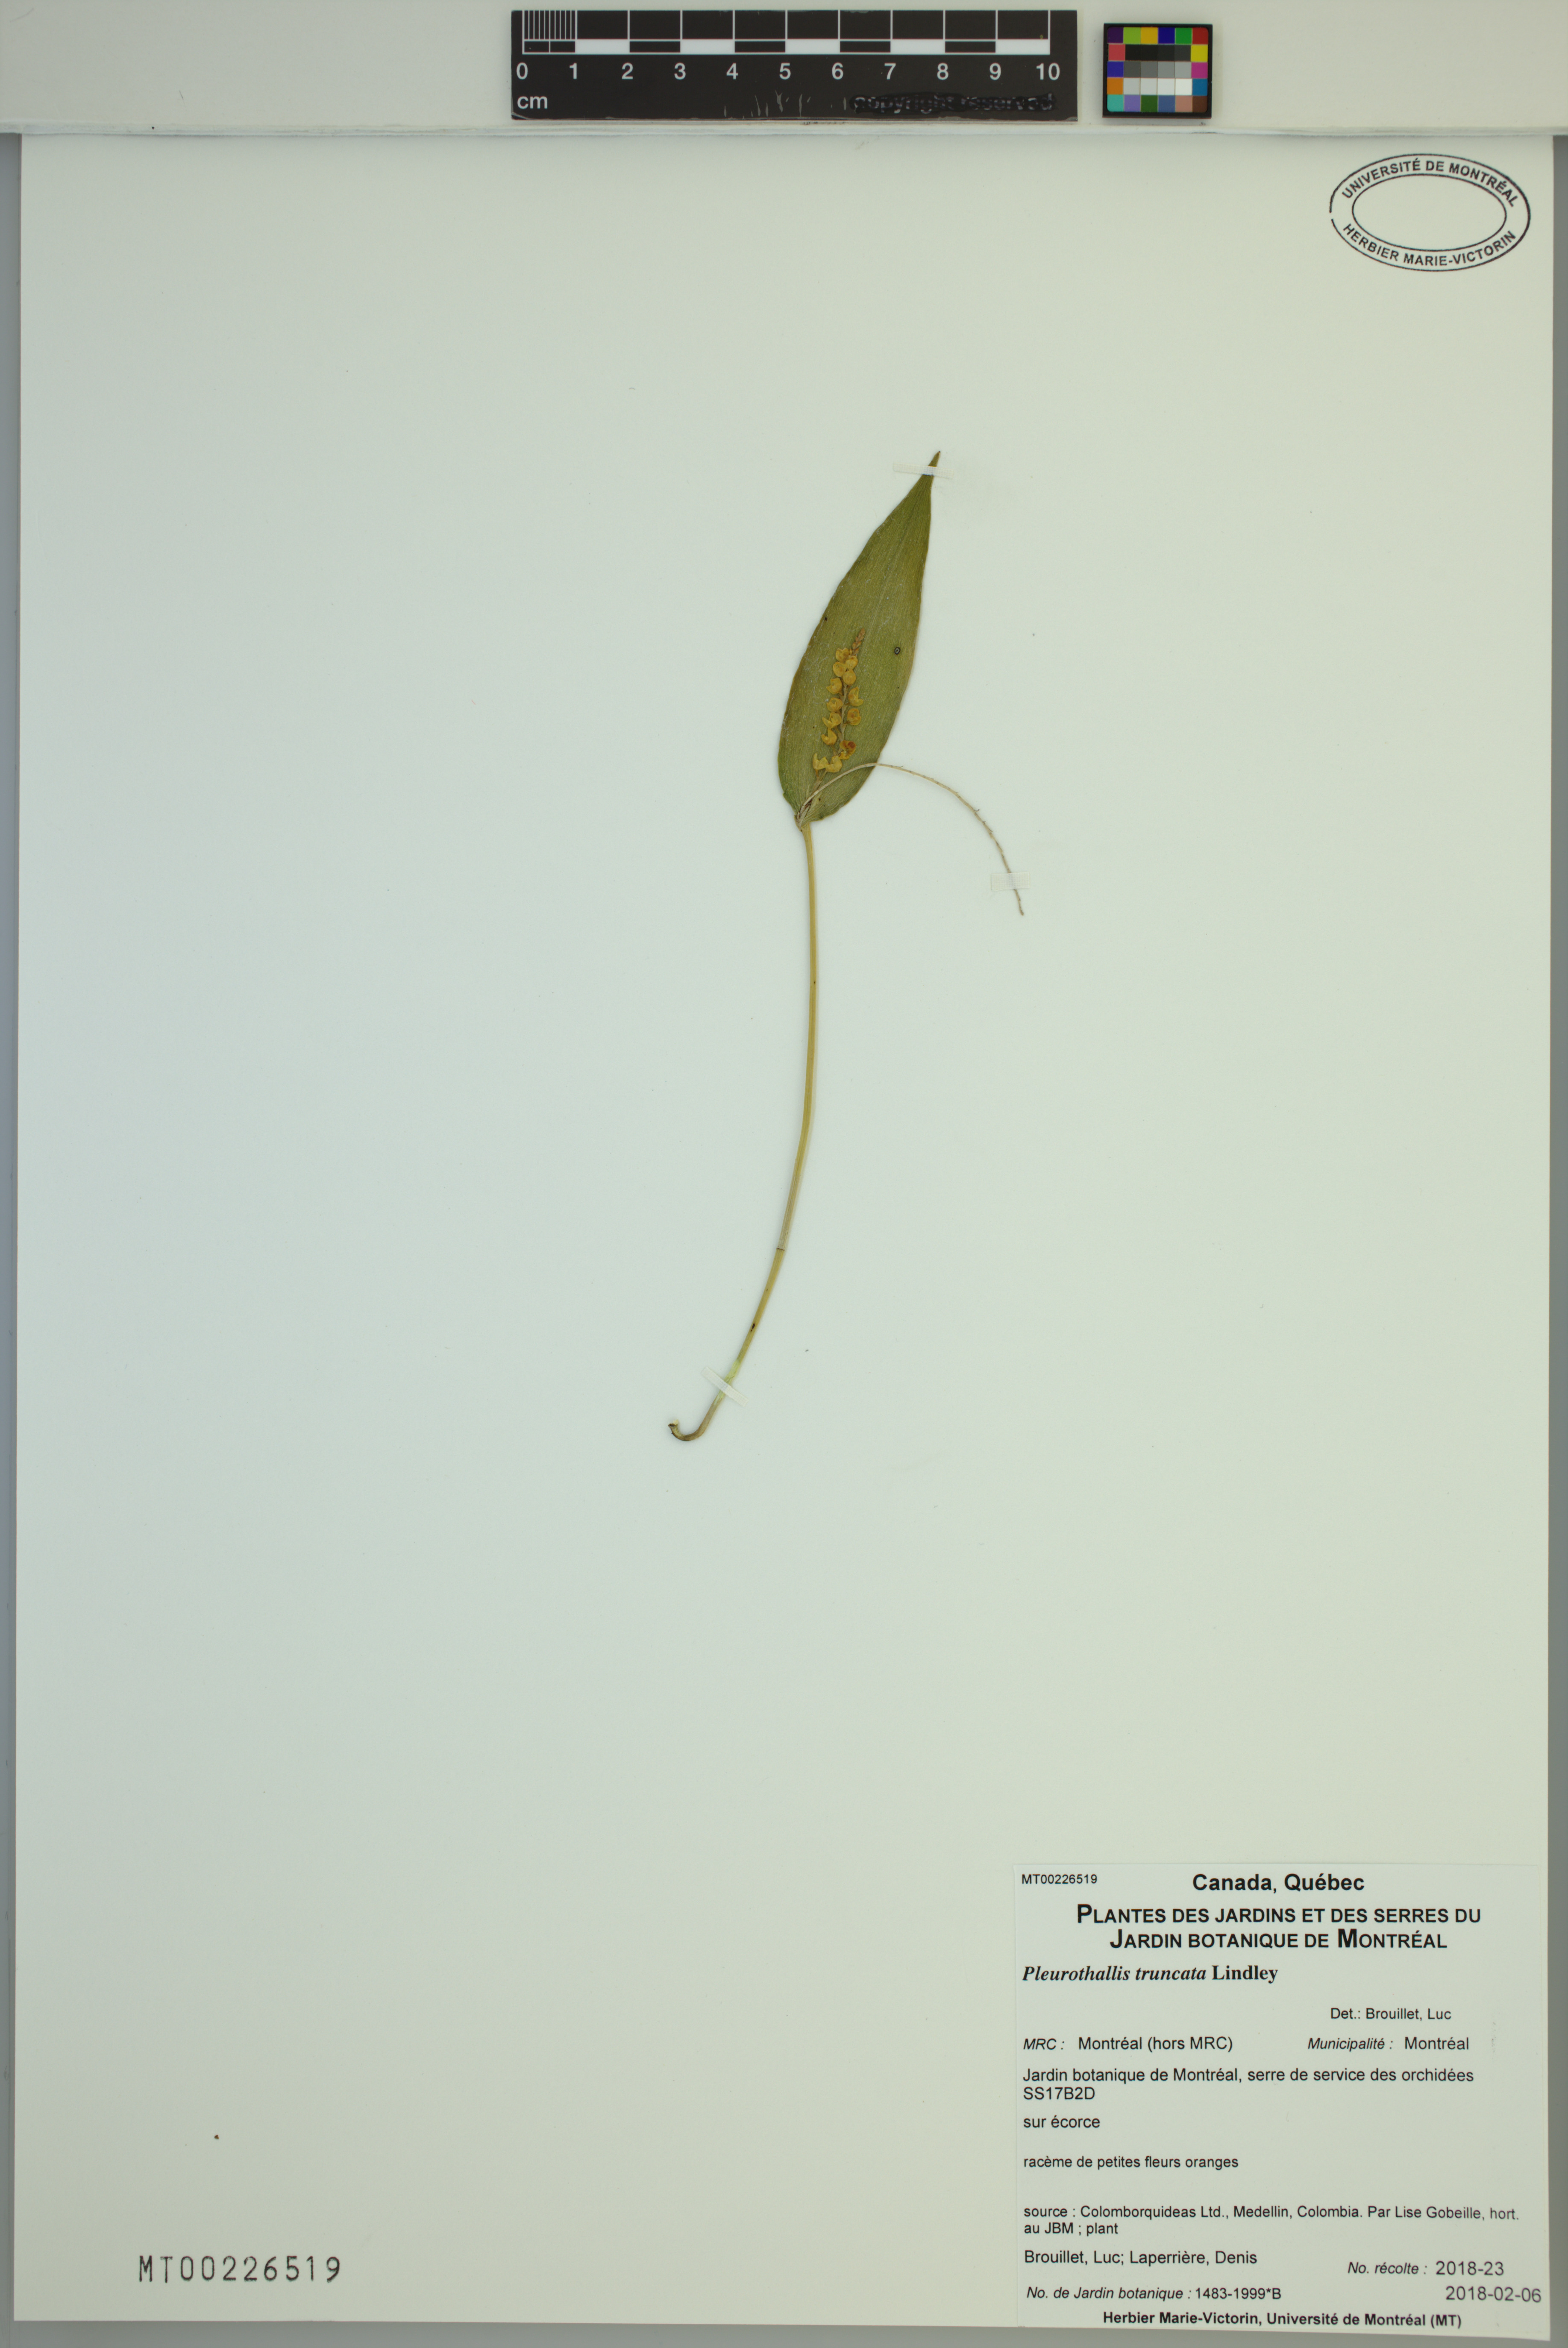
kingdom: Plantae
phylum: Tracheophyta
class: Liliopsida
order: Asparagales
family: Orchidaceae
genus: Pleurothallis
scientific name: Pleurothallis truncata
